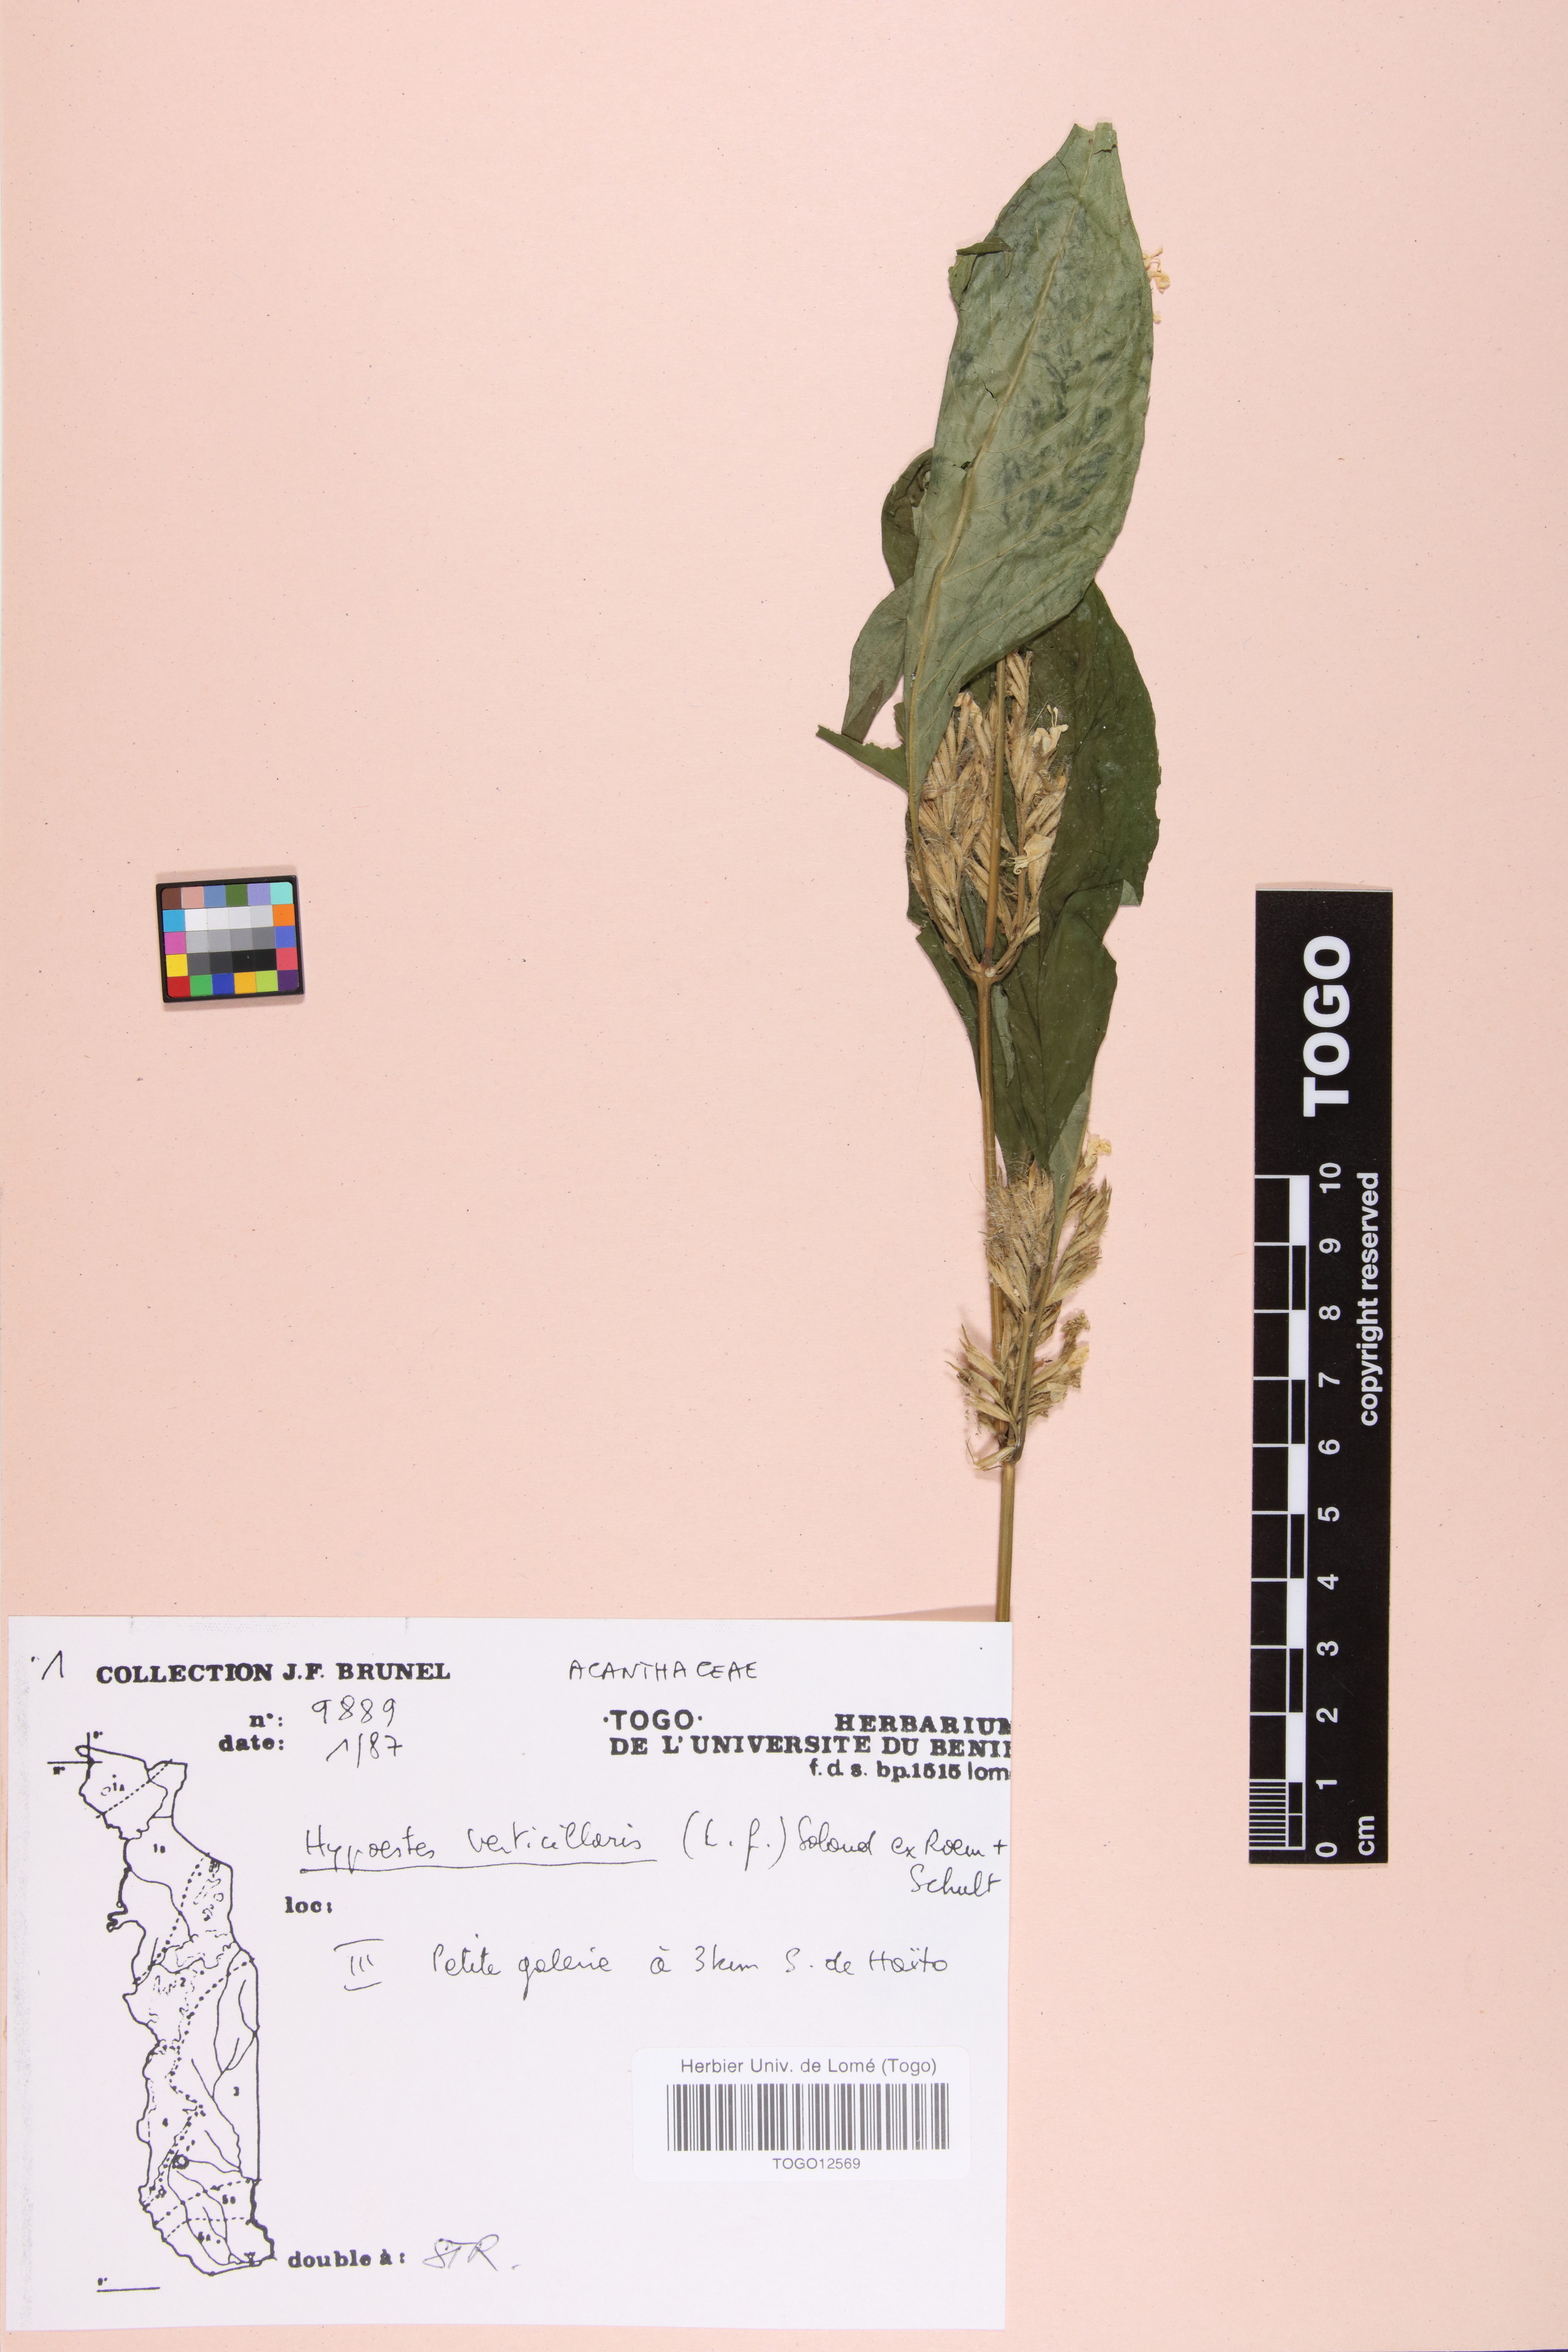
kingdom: Plantae
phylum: Tracheophyta
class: Magnoliopsida
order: Lamiales
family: Acanthaceae
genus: Hypoestes
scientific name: Hypoestes aristata
